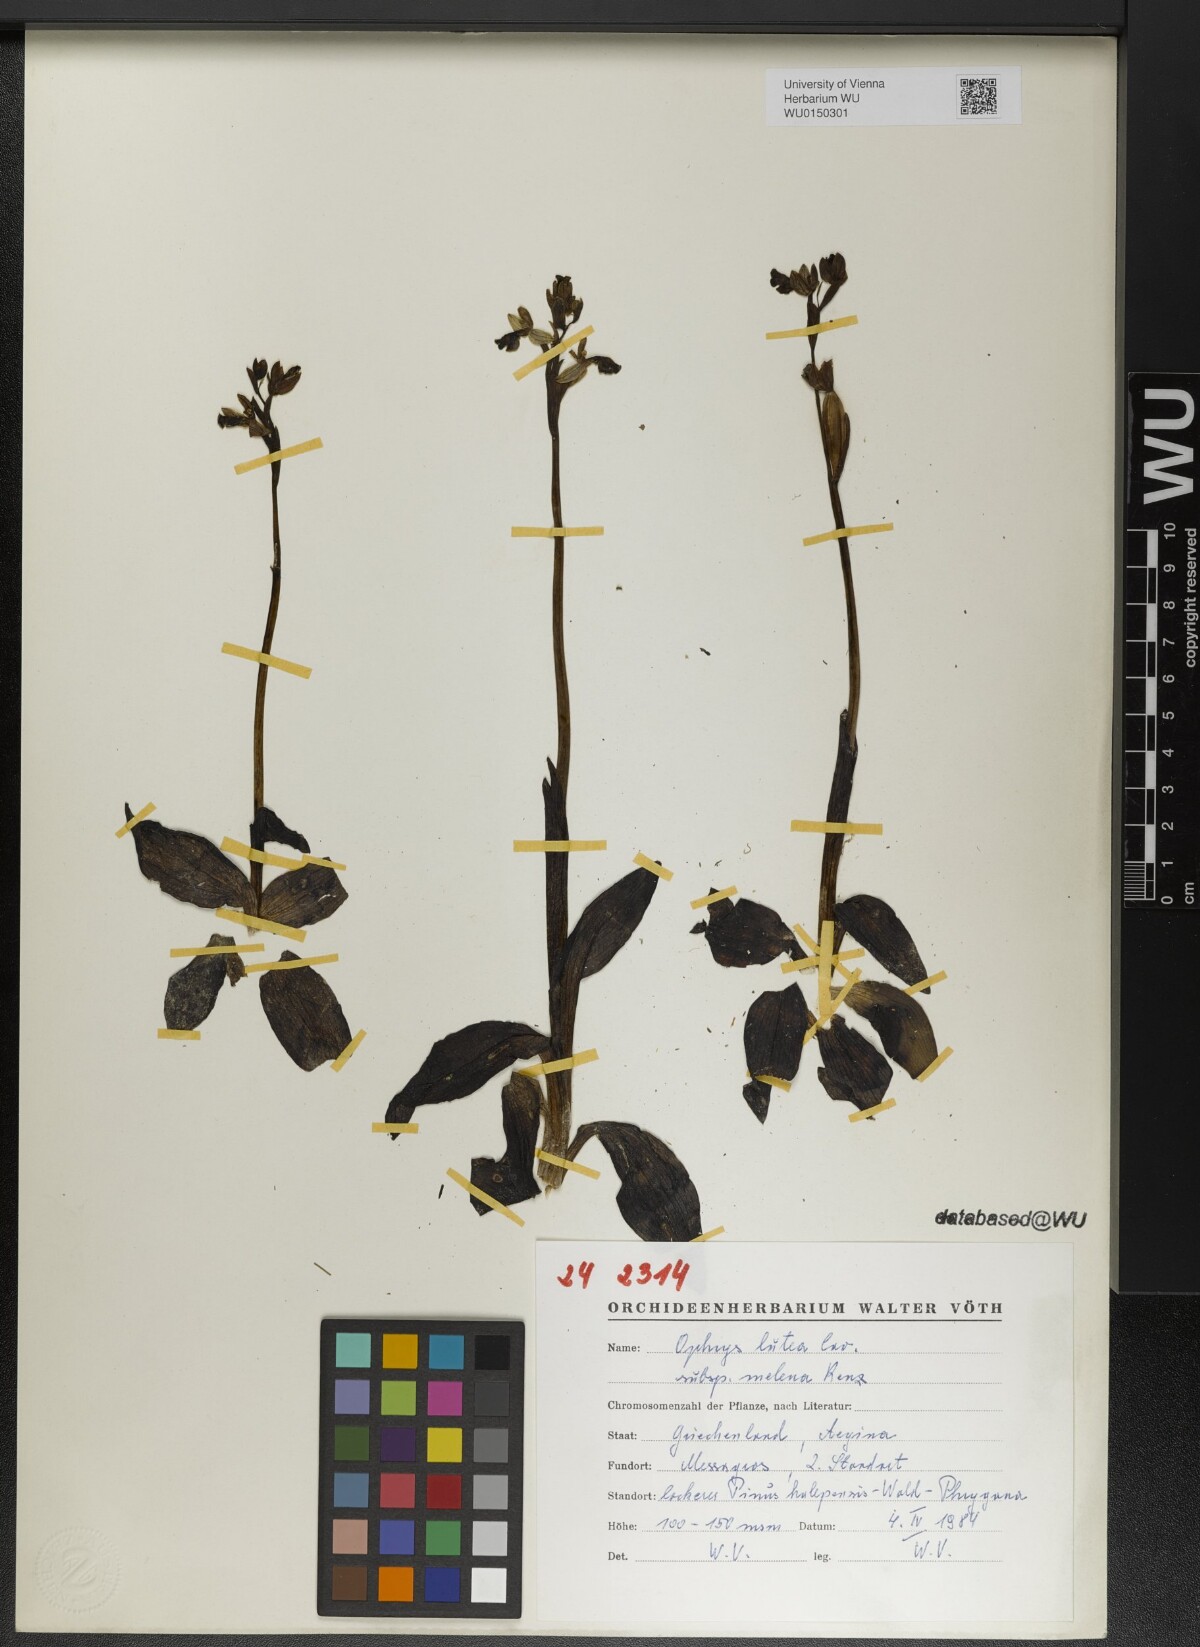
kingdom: Plantae
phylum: Tracheophyta
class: Liliopsida
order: Asparagales
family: Orchidaceae
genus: Ophrys
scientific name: Ophrys lutea
